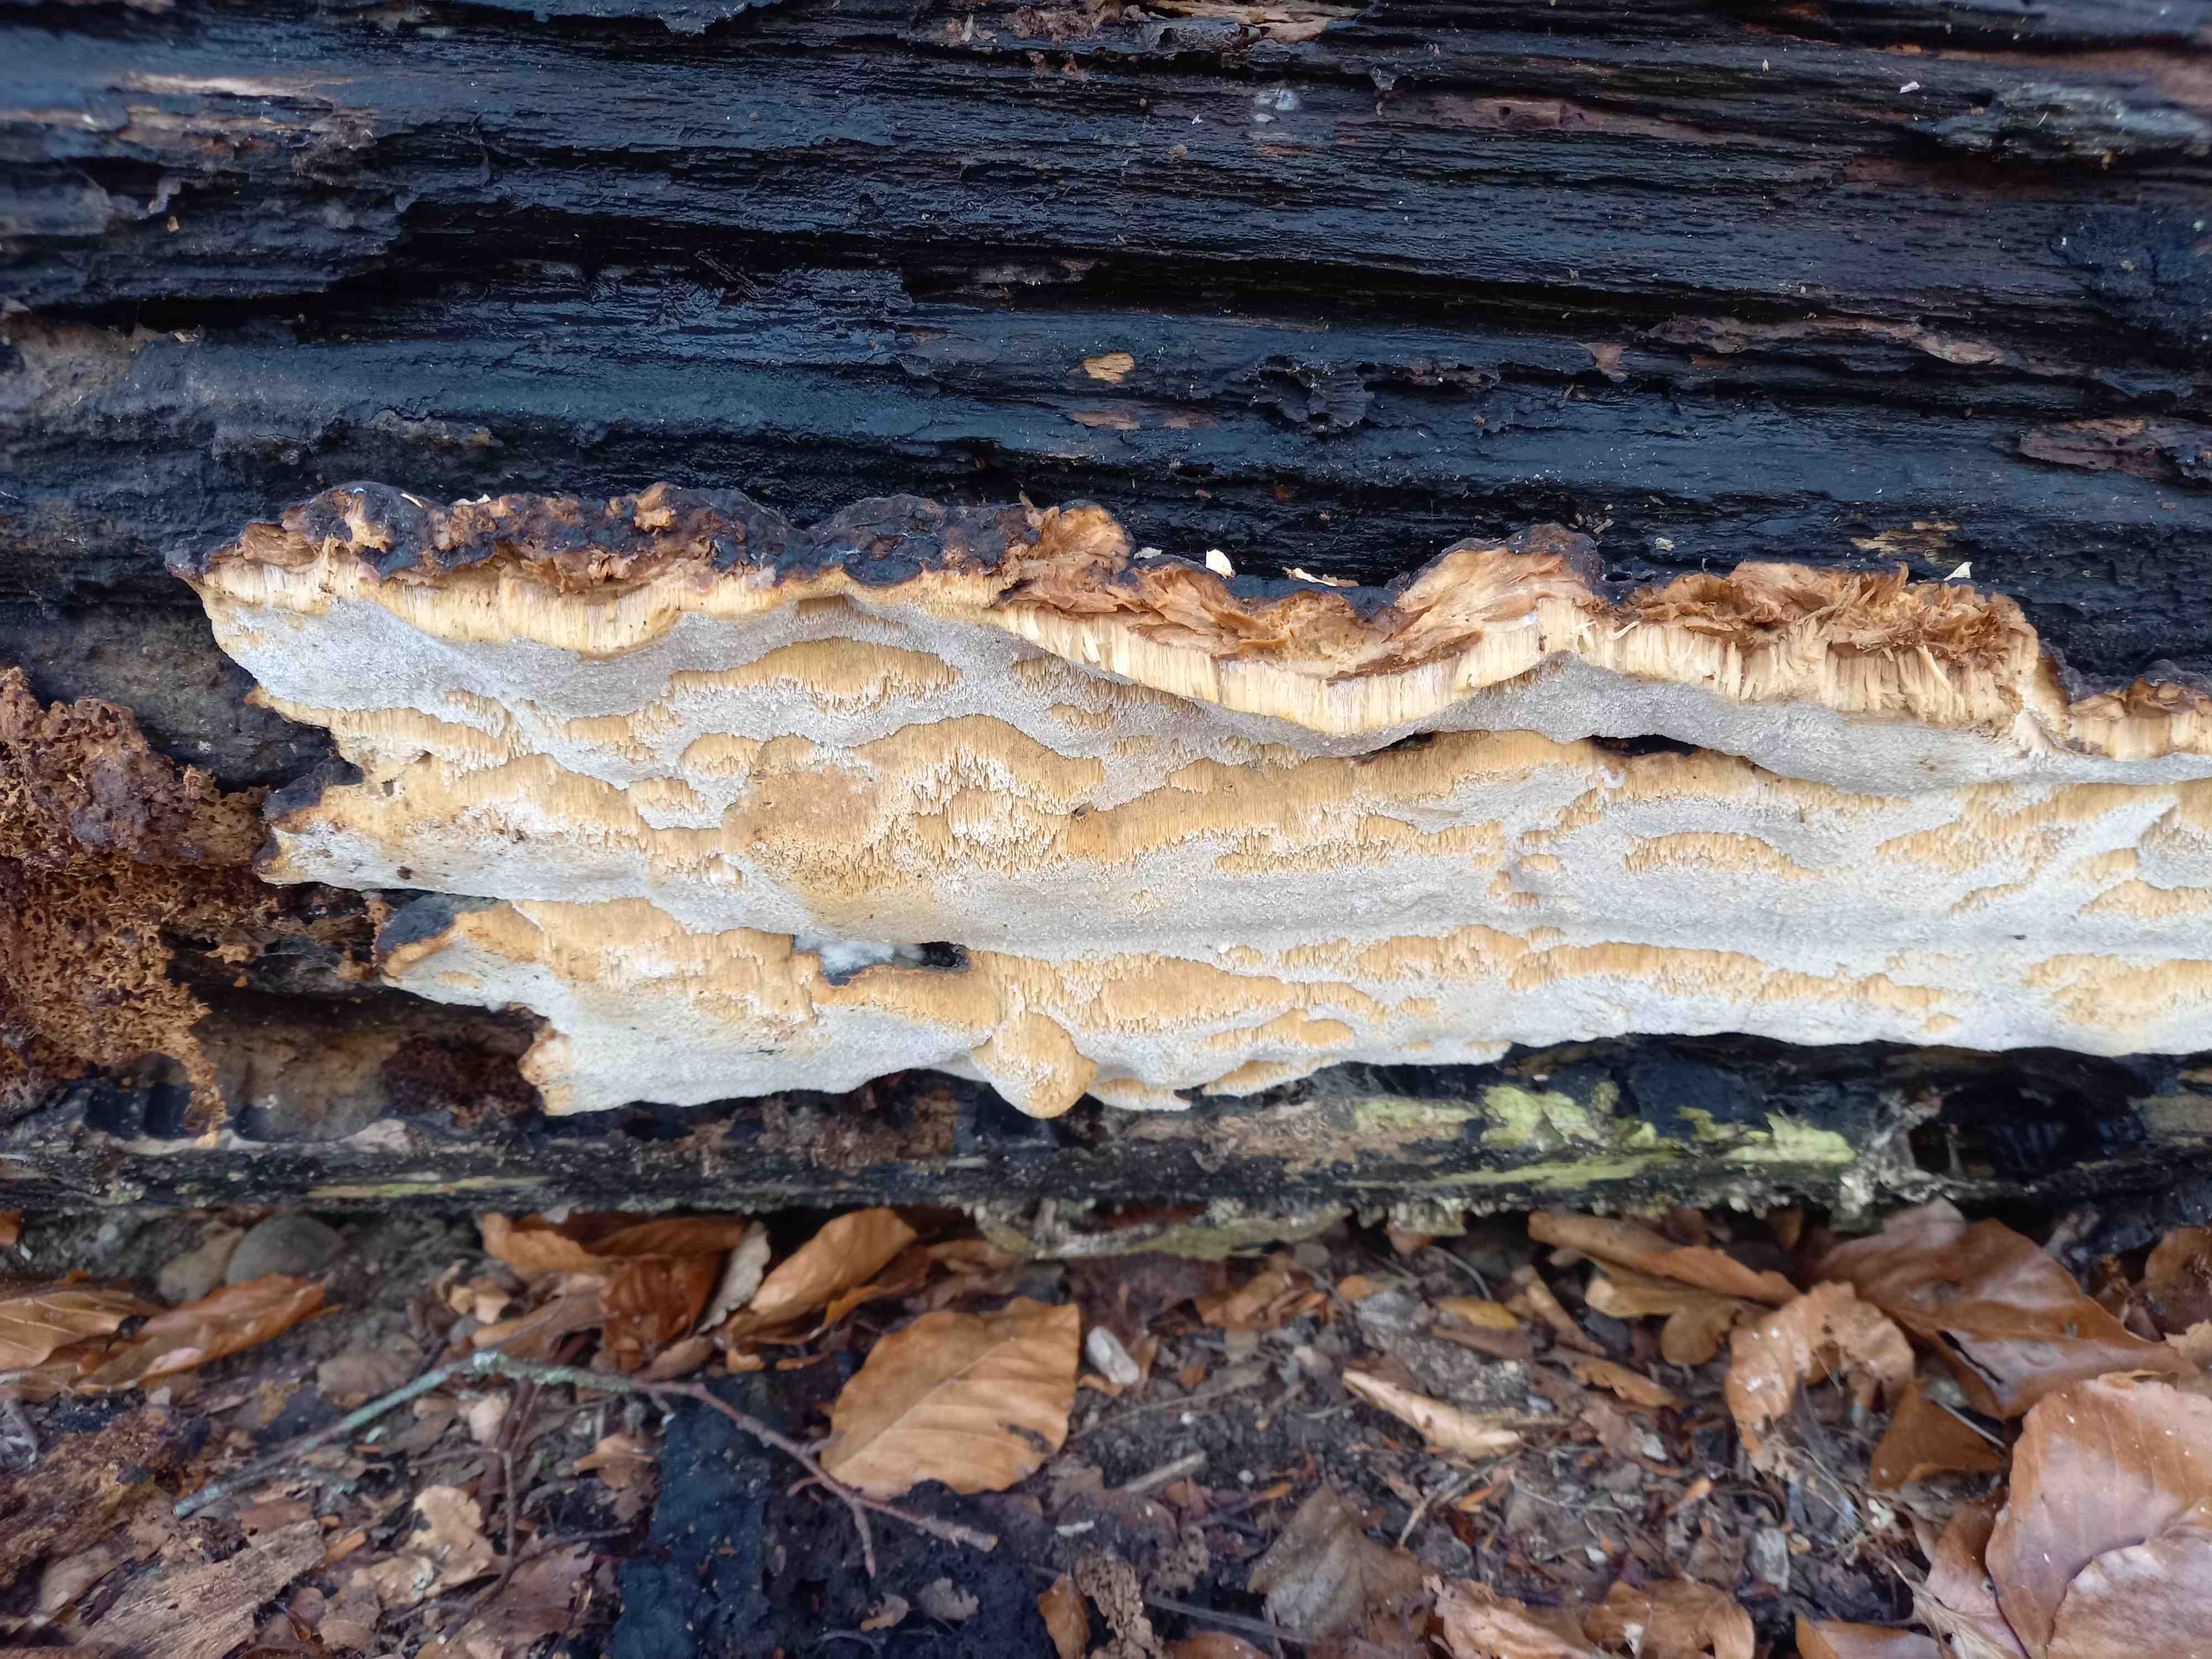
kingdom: Fungi
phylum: Basidiomycota
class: Agaricomycetes
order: Polyporales
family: Ischnodermataceae
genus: Ischnoderma
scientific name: Ischnoderma resinosum
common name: løv-tjæreporesvamp
